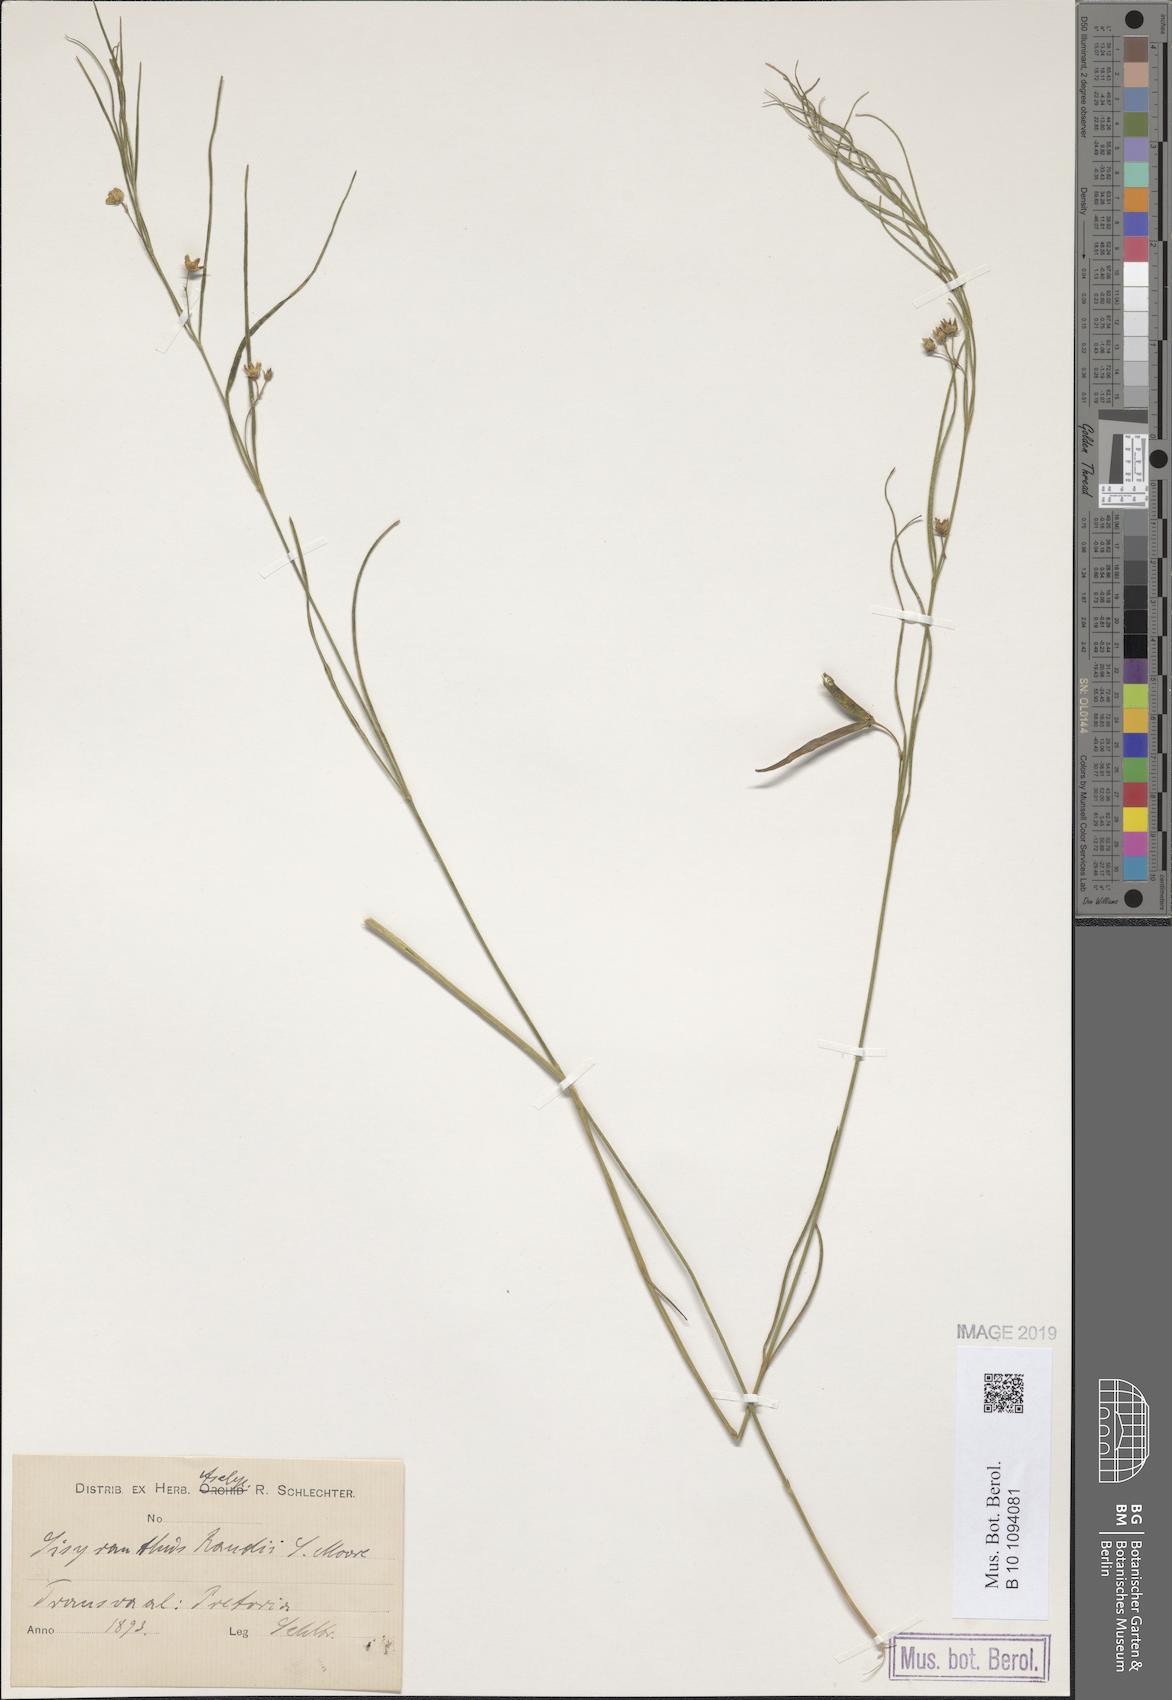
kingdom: Plantae
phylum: Tracheophyta
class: Magnoliopsida
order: Gentianales
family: Apocynaceae
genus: Sisyranthus
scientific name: Sisyranthus randii
